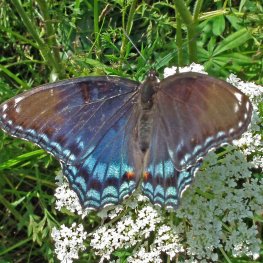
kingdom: Animalia
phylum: Arthropoda
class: Insecta
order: Lepidoptera
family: Nymphalidae
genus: Limenitis
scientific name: Limenitis arthemis
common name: Red-spotted Admiral
